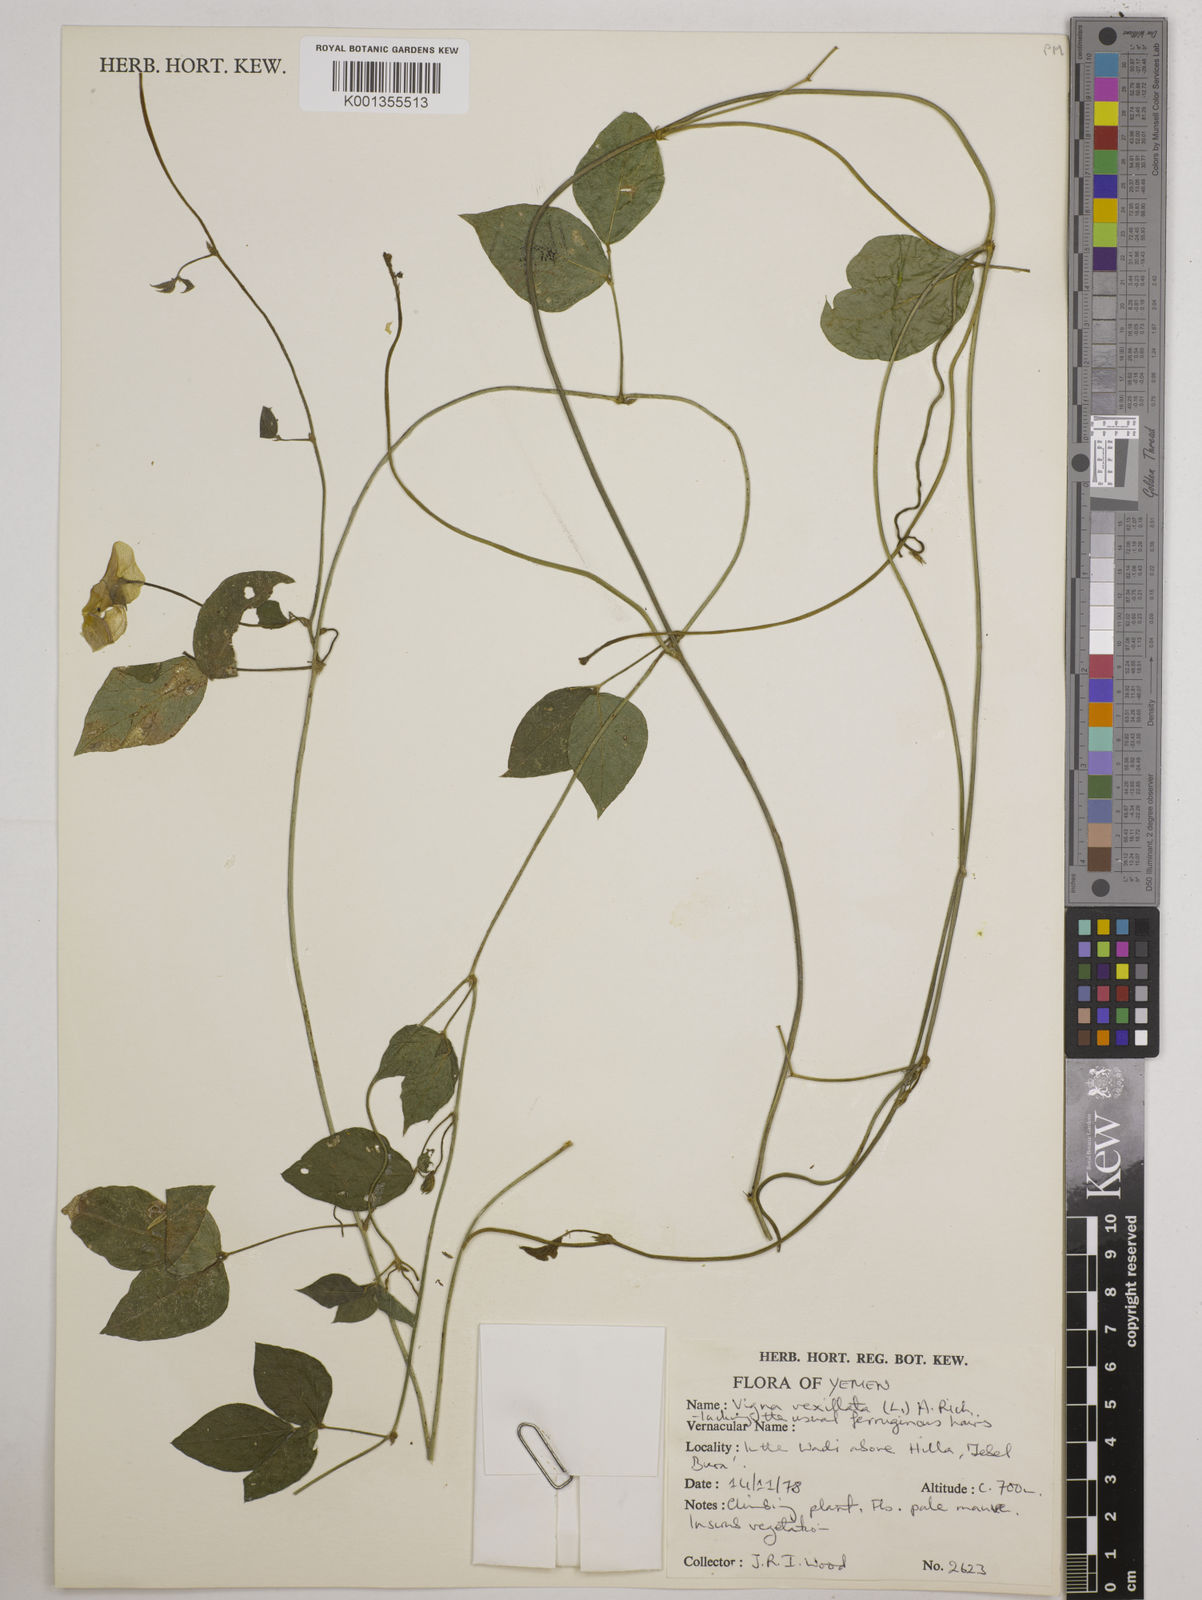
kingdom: Plantae
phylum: Tracheophyta
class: Magnoliopsida
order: Fabales
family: Fabaceae
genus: Vigna
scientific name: Vigna vexillata
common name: Zombi pea
